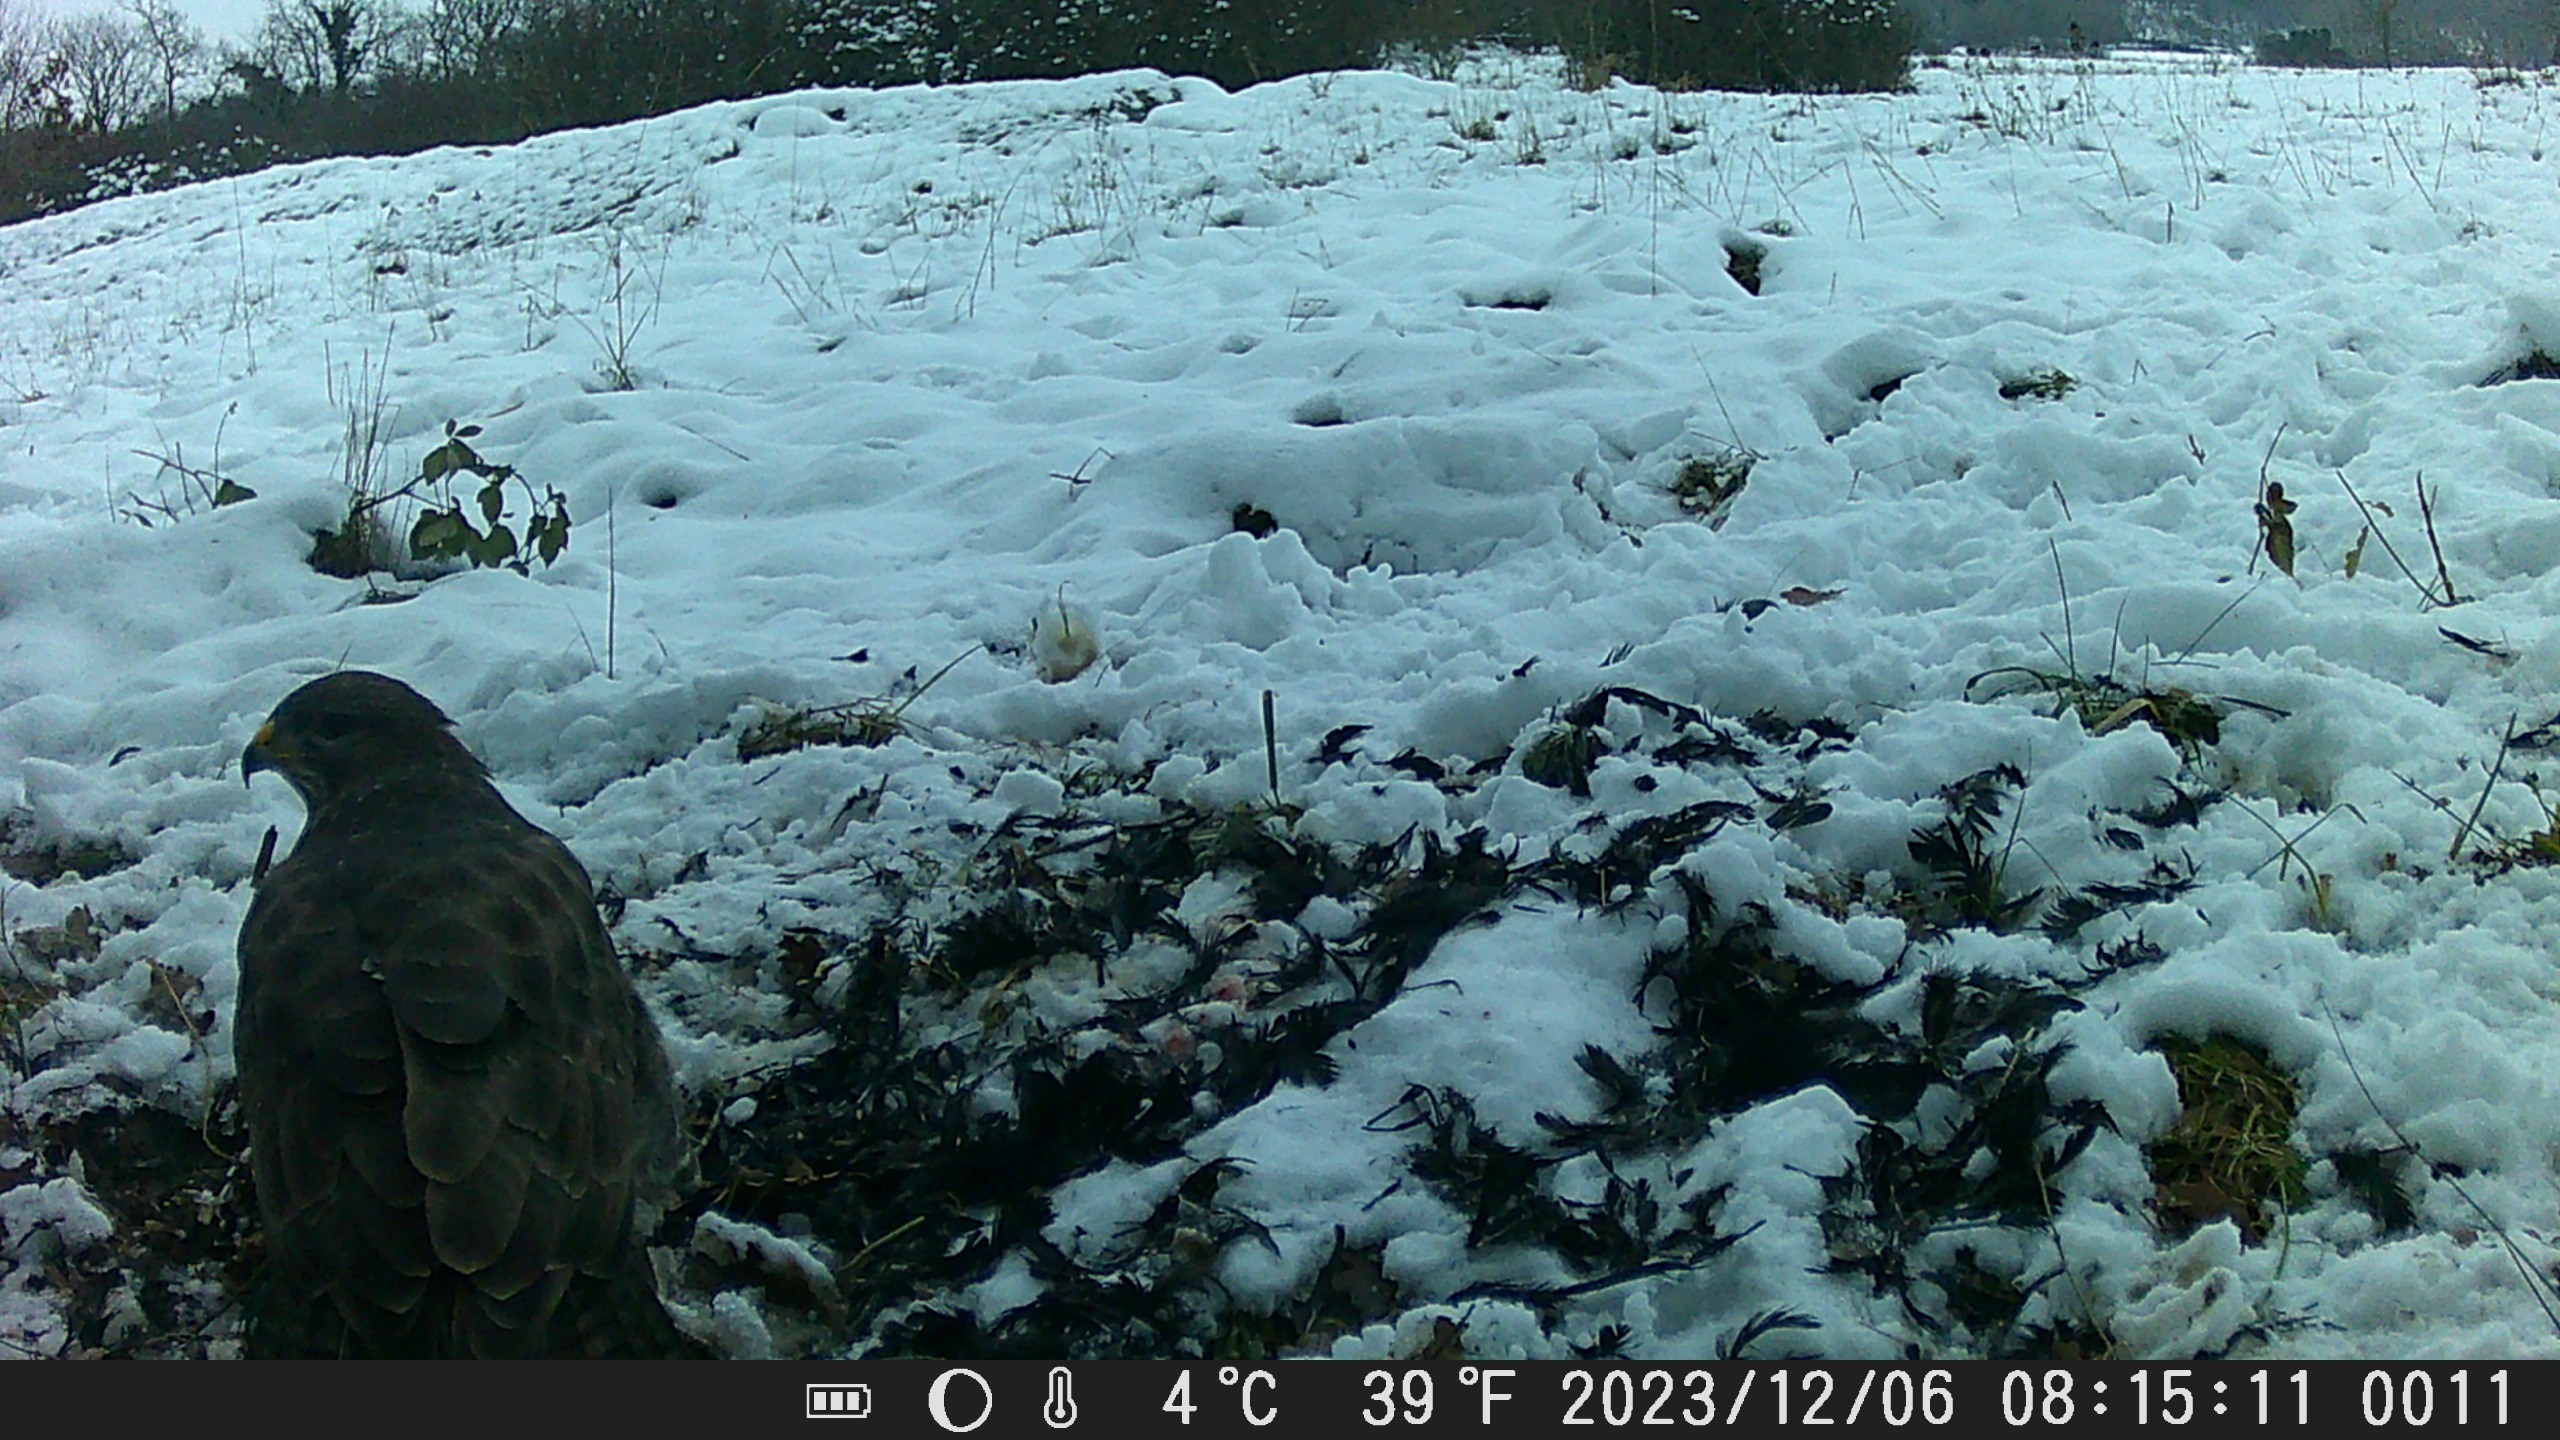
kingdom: Animalia
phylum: Chordata
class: Aves
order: Accipitriformes
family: Accipitridae
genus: Buteo
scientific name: Buteo buteo
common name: Musvåge
